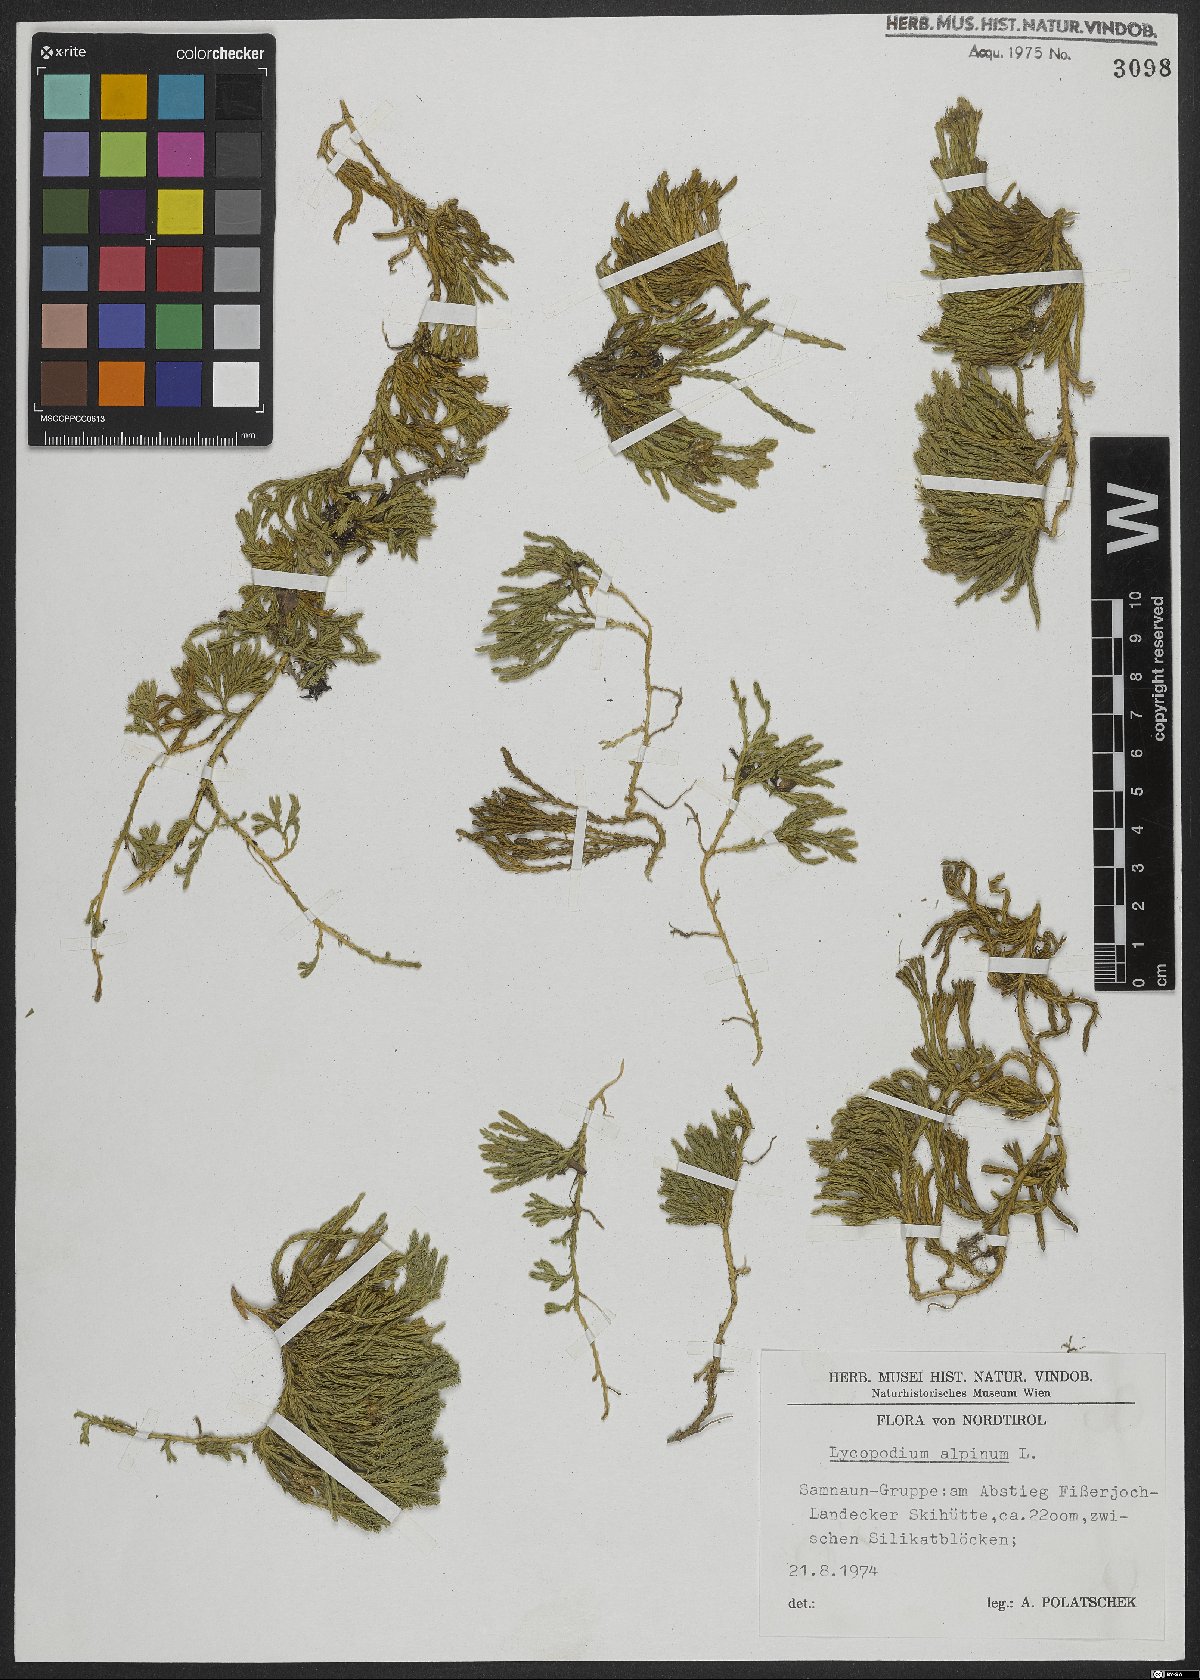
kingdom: Plantae
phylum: Tracheophyta
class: Lycopodiopsida
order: Lycopodiales
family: Lycopodiaceae
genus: Diphasiastrum
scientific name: Diphasiastrum alpinum
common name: Alpine clubmoss
